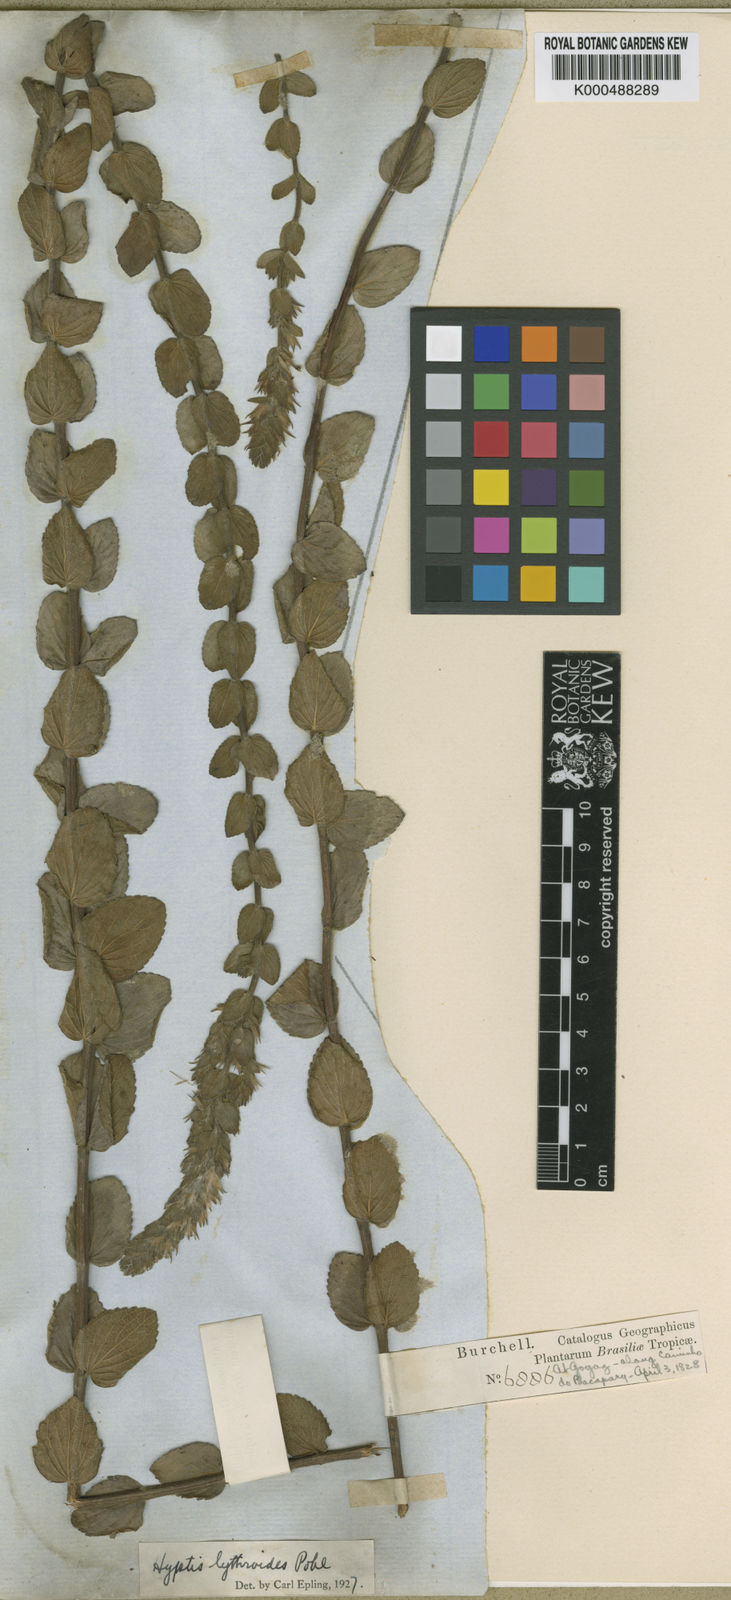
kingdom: Plantae
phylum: Tracheophyta
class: Magnoliopsida
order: Lamiales
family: Lamiaceae
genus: Oocephalus
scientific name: Oocephalus lythroides
